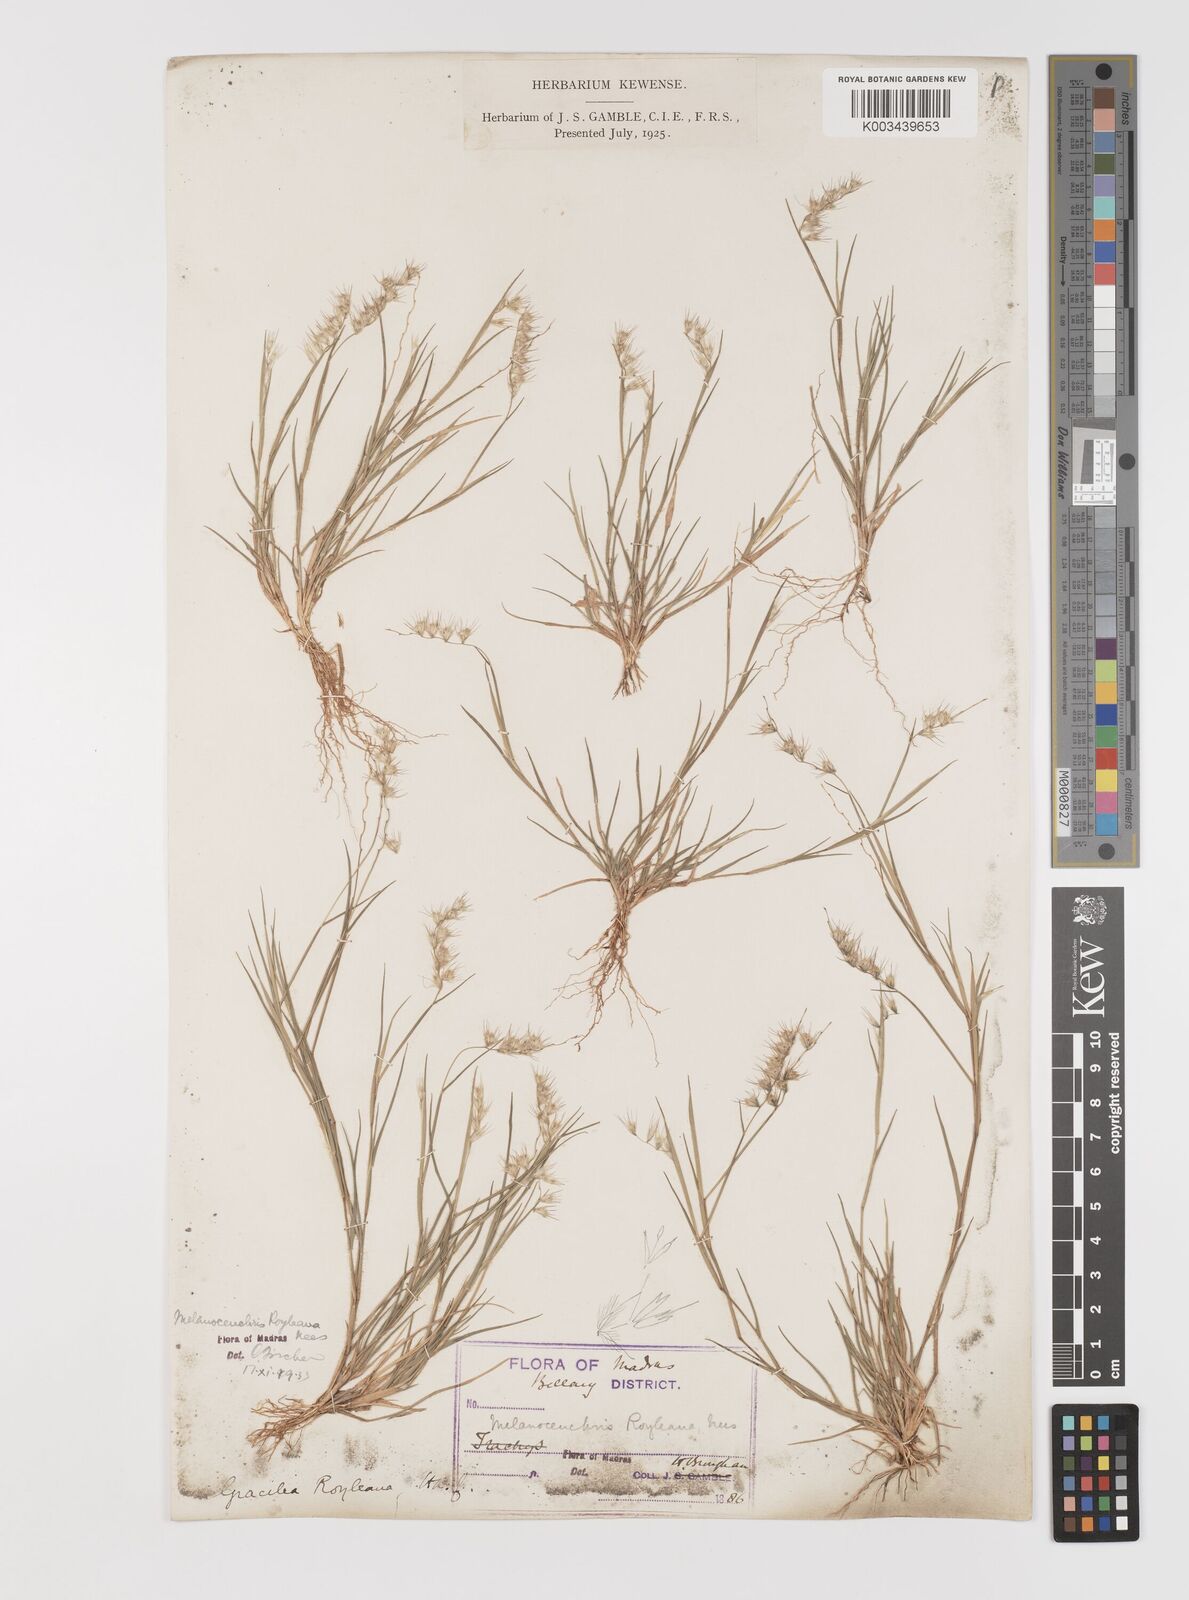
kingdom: Plantae
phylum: Tracheophyta
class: Liliopsida
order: Poales
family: Poaceae
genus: Melanocenchris
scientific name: Melanocenchris jacquemontii
